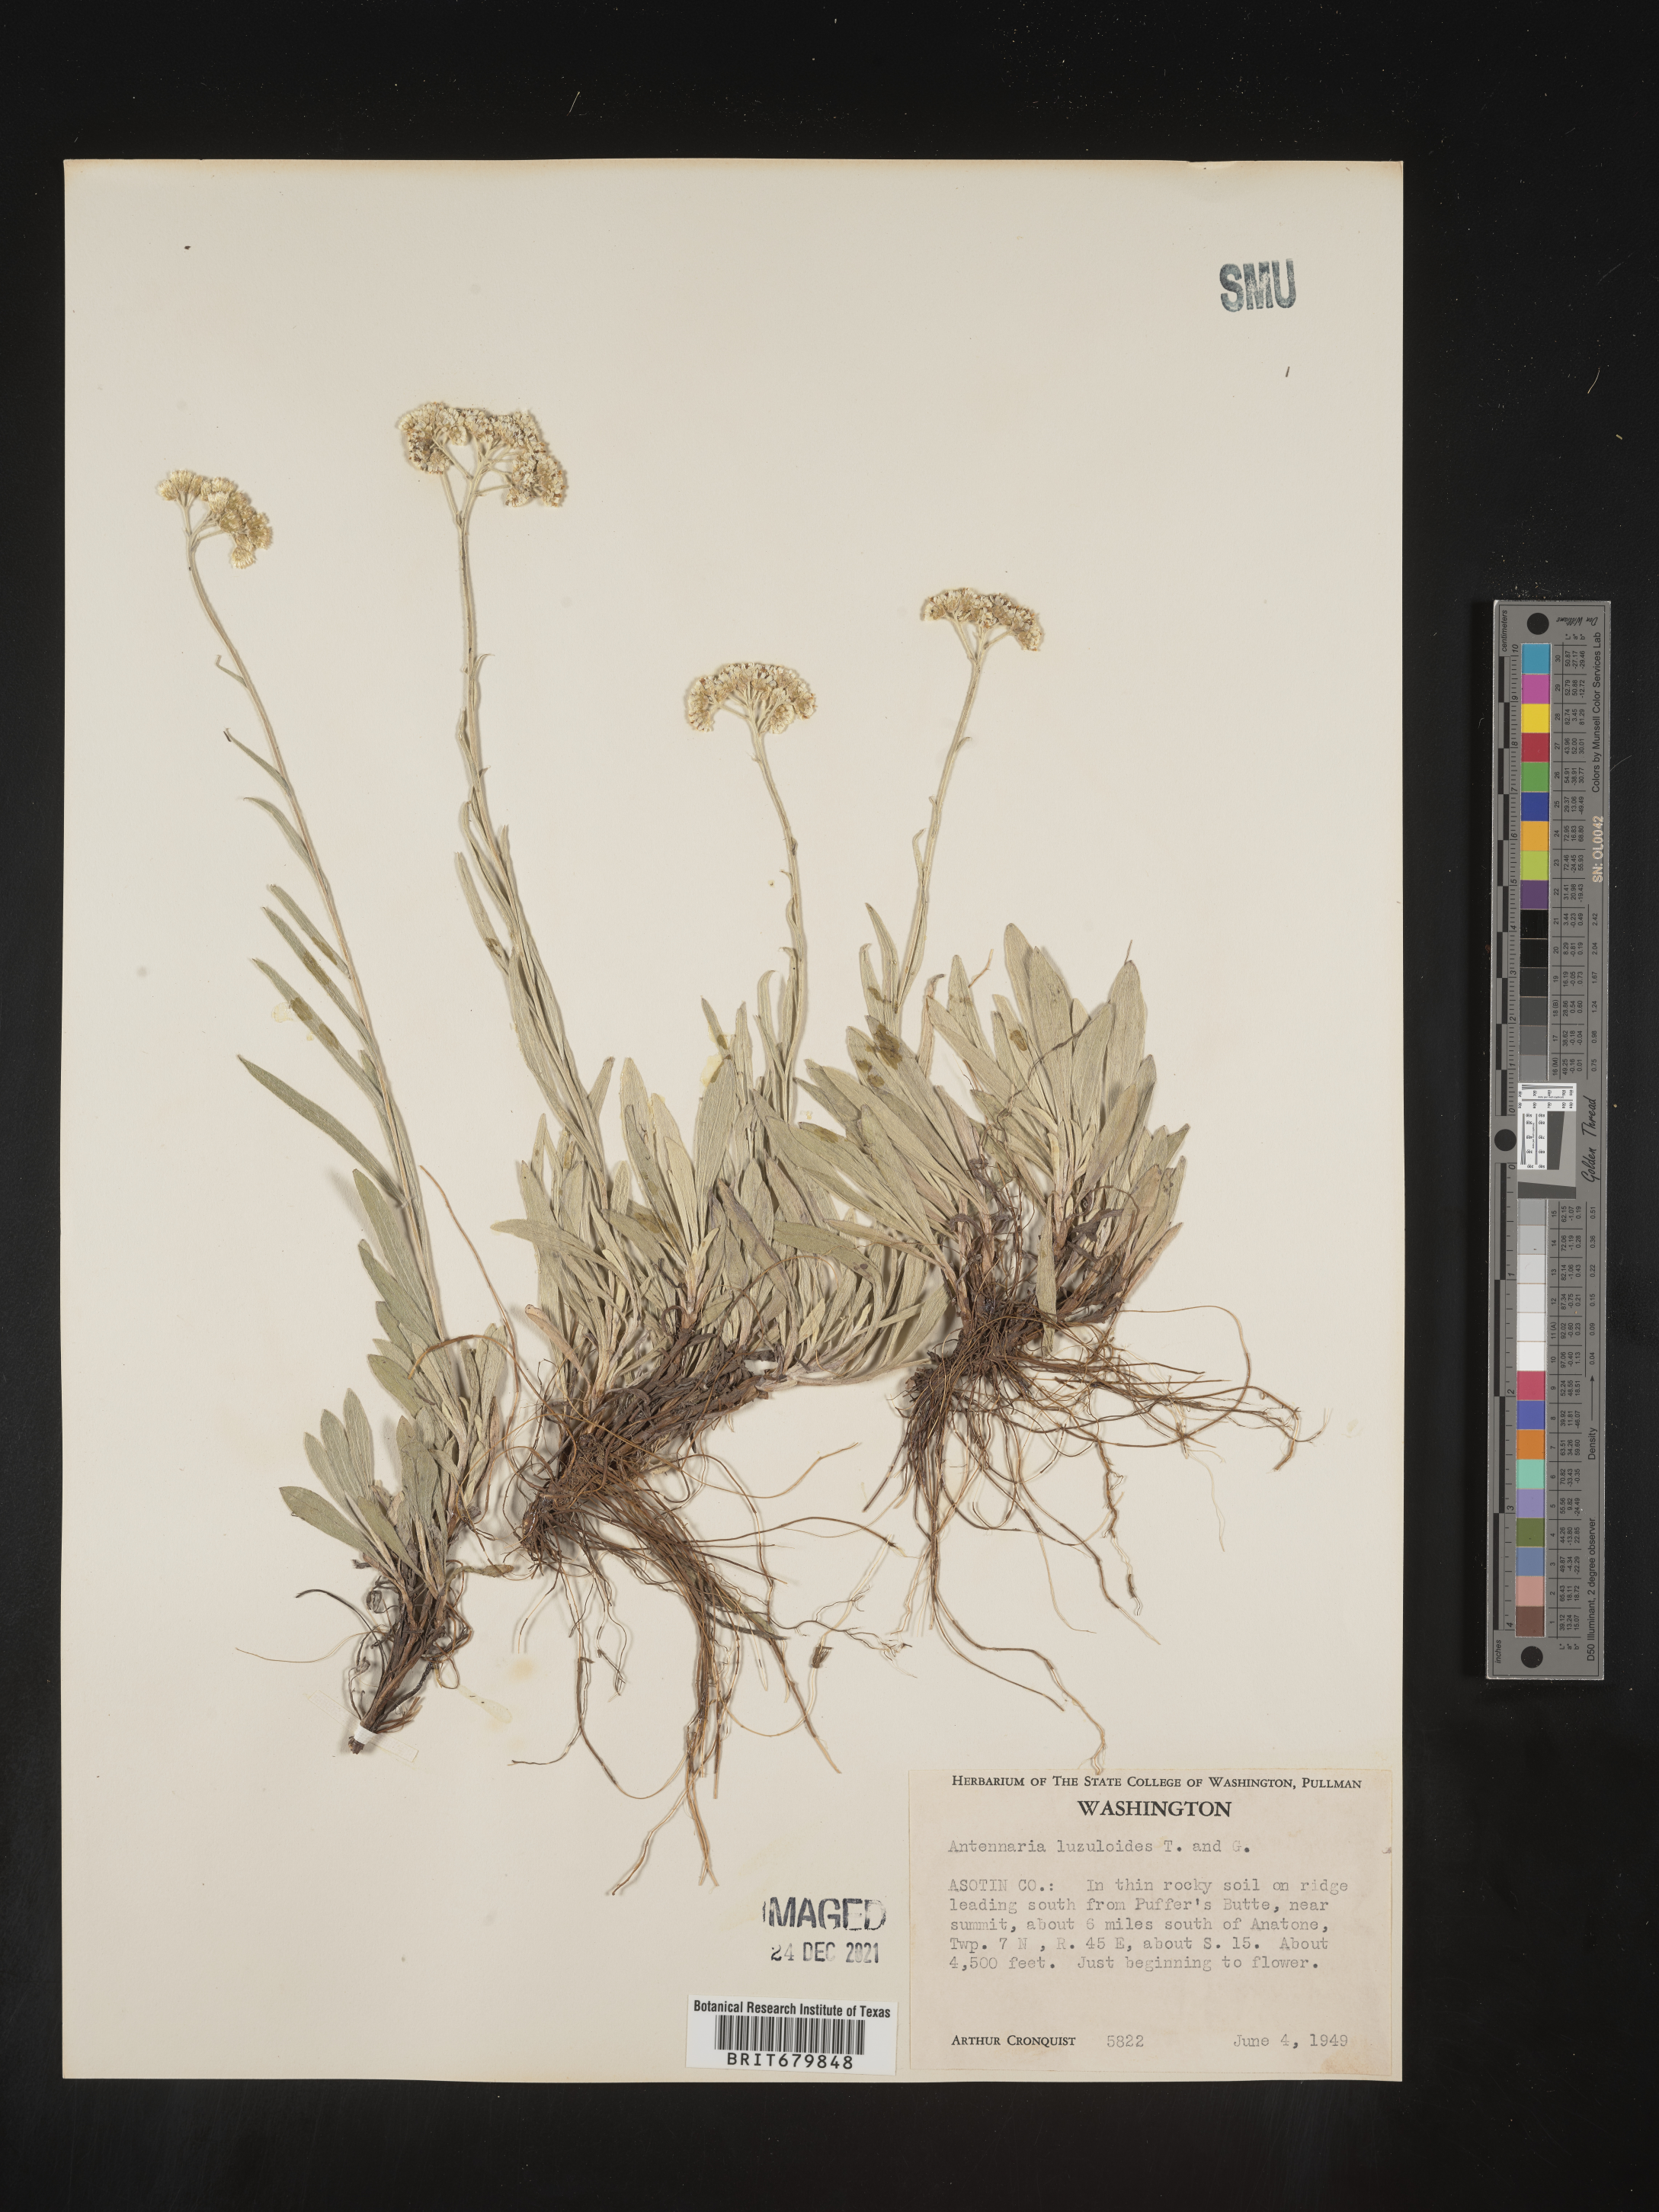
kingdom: Plantae
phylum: Tracheophyta
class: Magnoliopsida
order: Asterales
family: Asteraceae
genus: Antennaria
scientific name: Antennaria luzuloides
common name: Rush pussytoes
